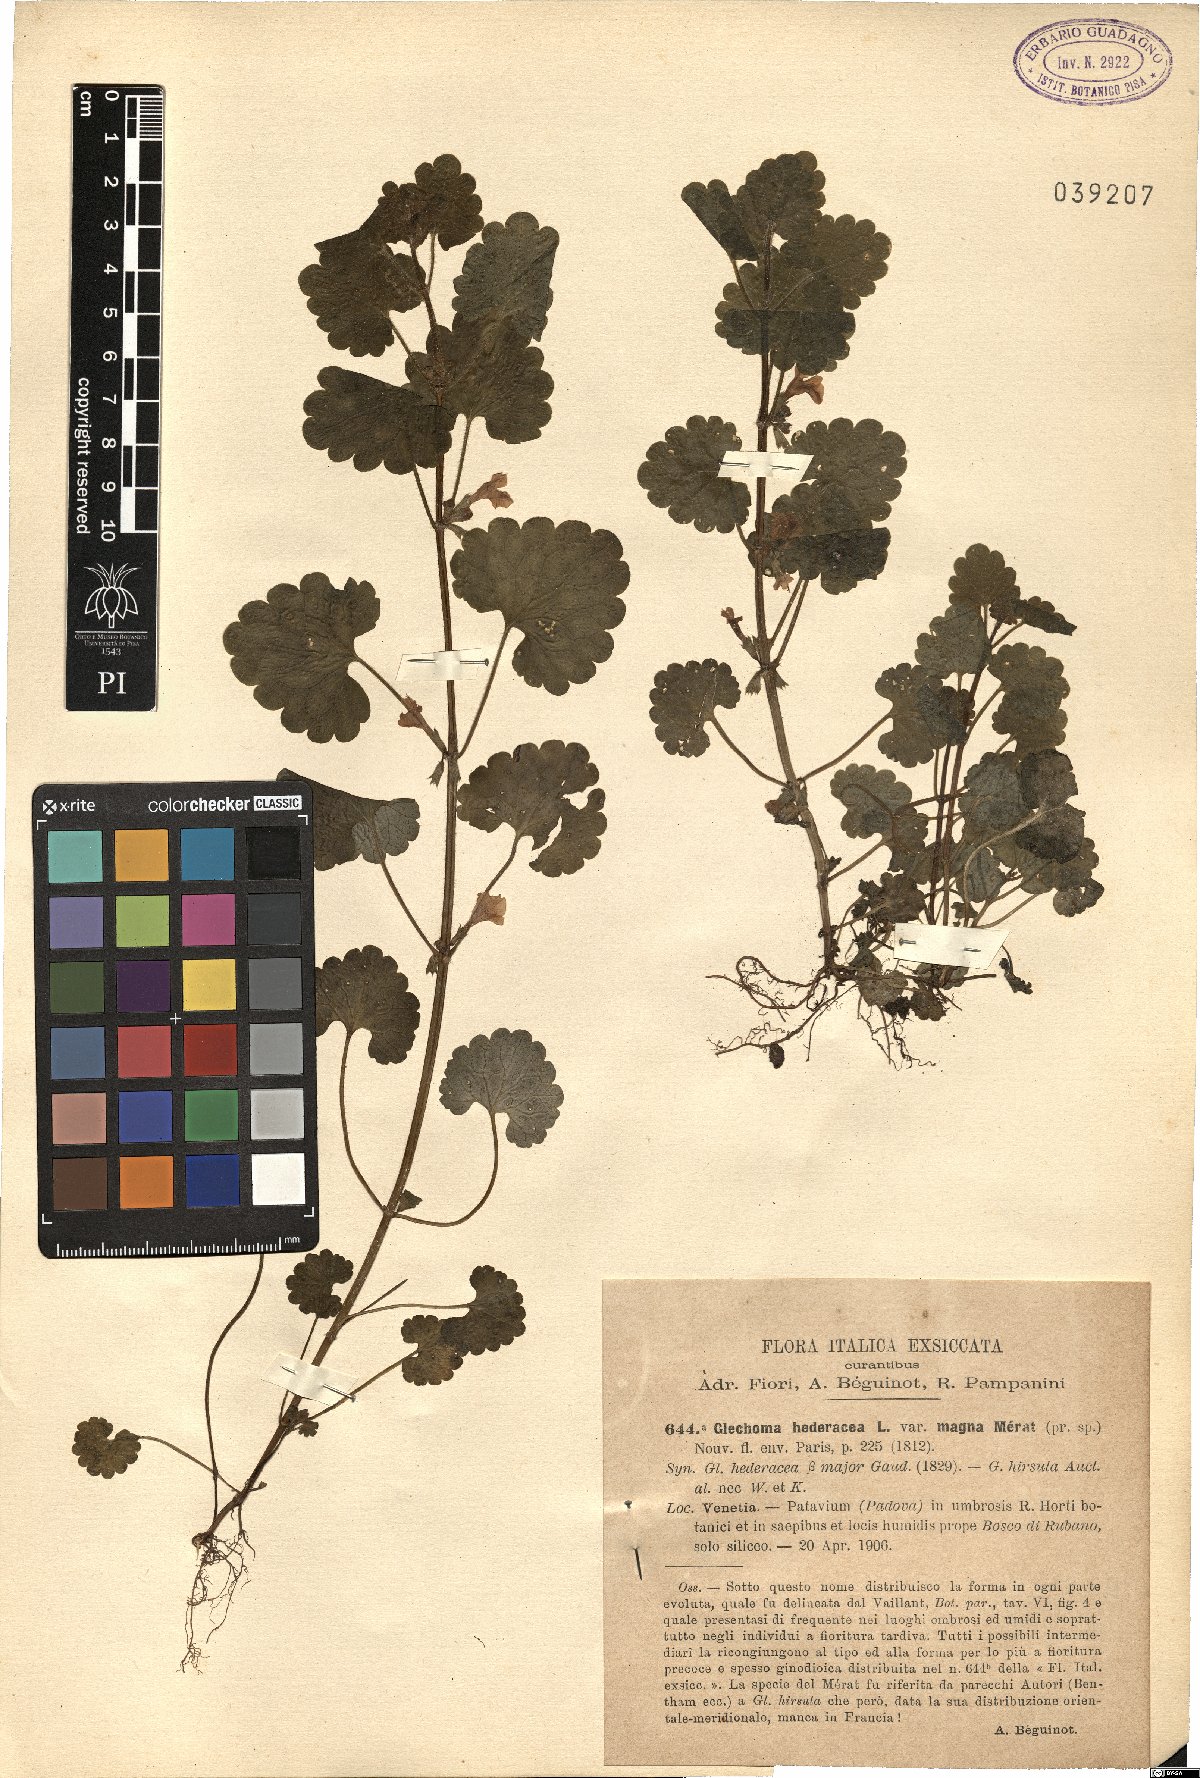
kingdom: Plantae
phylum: Tracheophyta
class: Magnoliopsida
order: Lamiales
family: Lamiaceae
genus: Glechoma
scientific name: Glechoma hederacea
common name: Ground ivy
